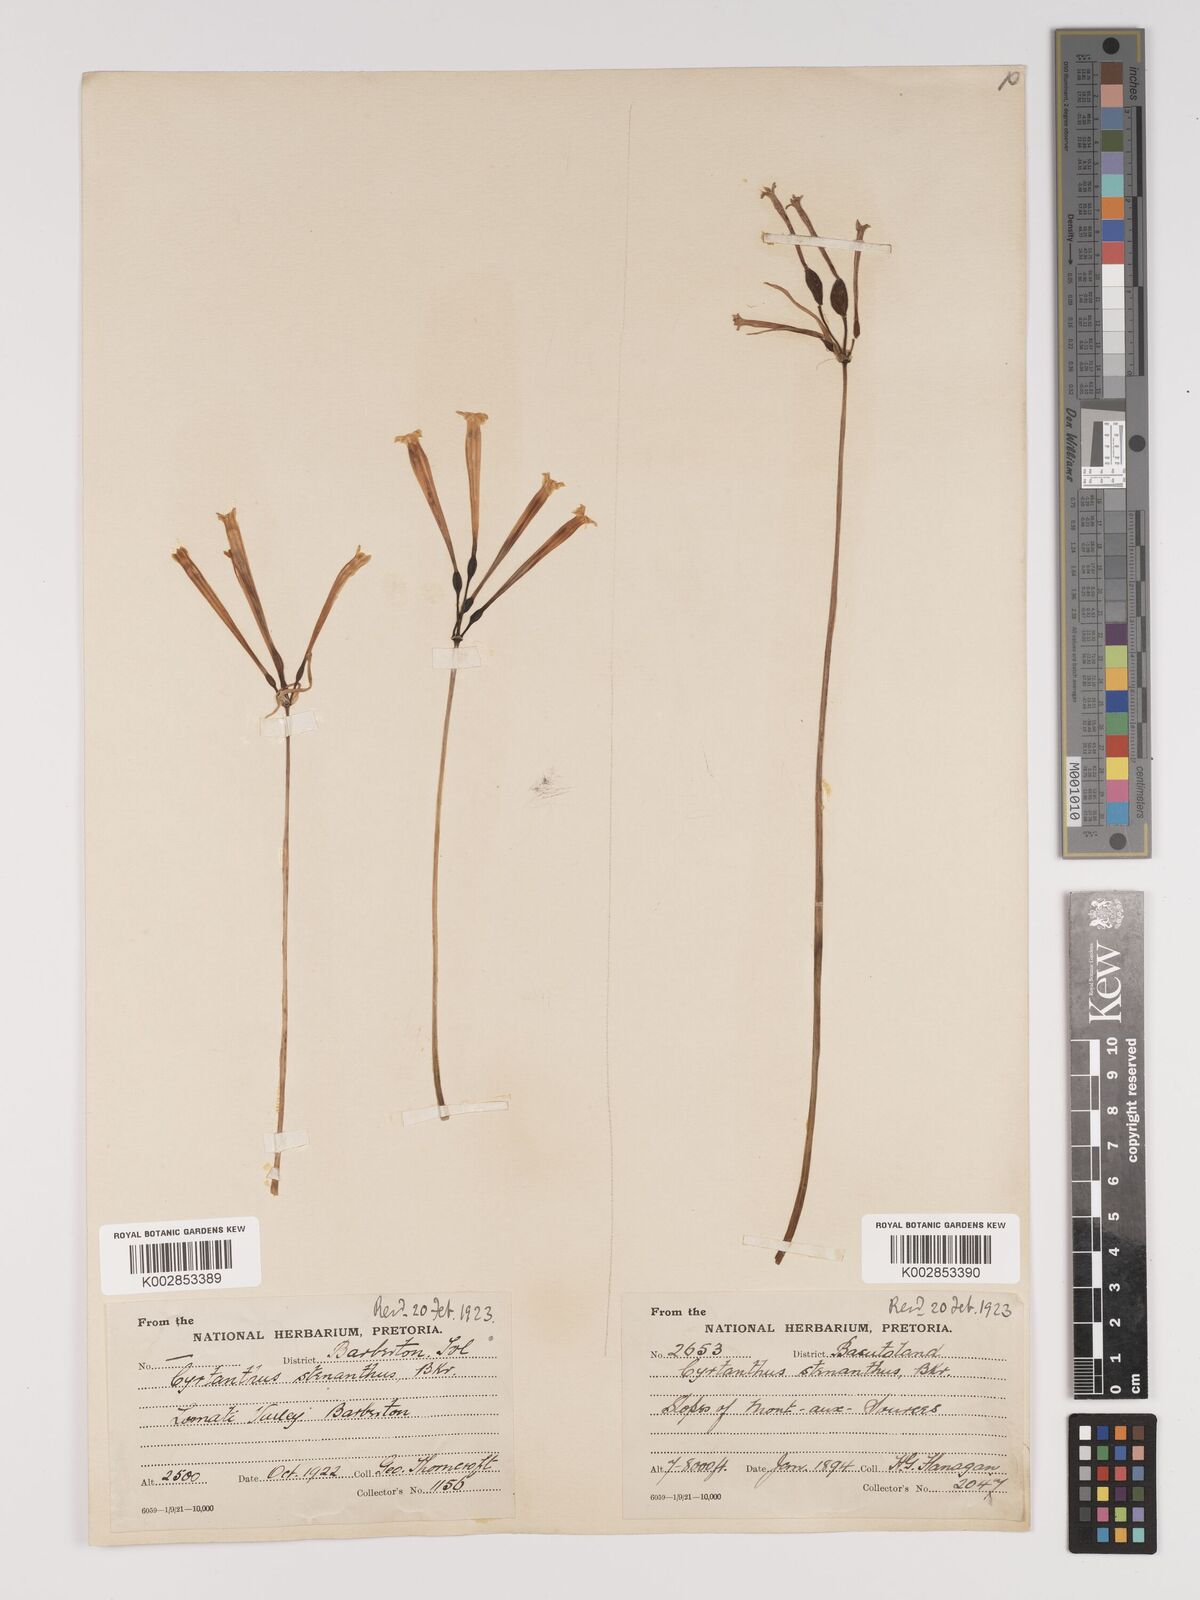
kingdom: Plantae
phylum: Tracheophyta
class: Liliopsida
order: Asparagales
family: Amaryllidaceae
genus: Cyrtanthus
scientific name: Cyrtanthus stenanthus
